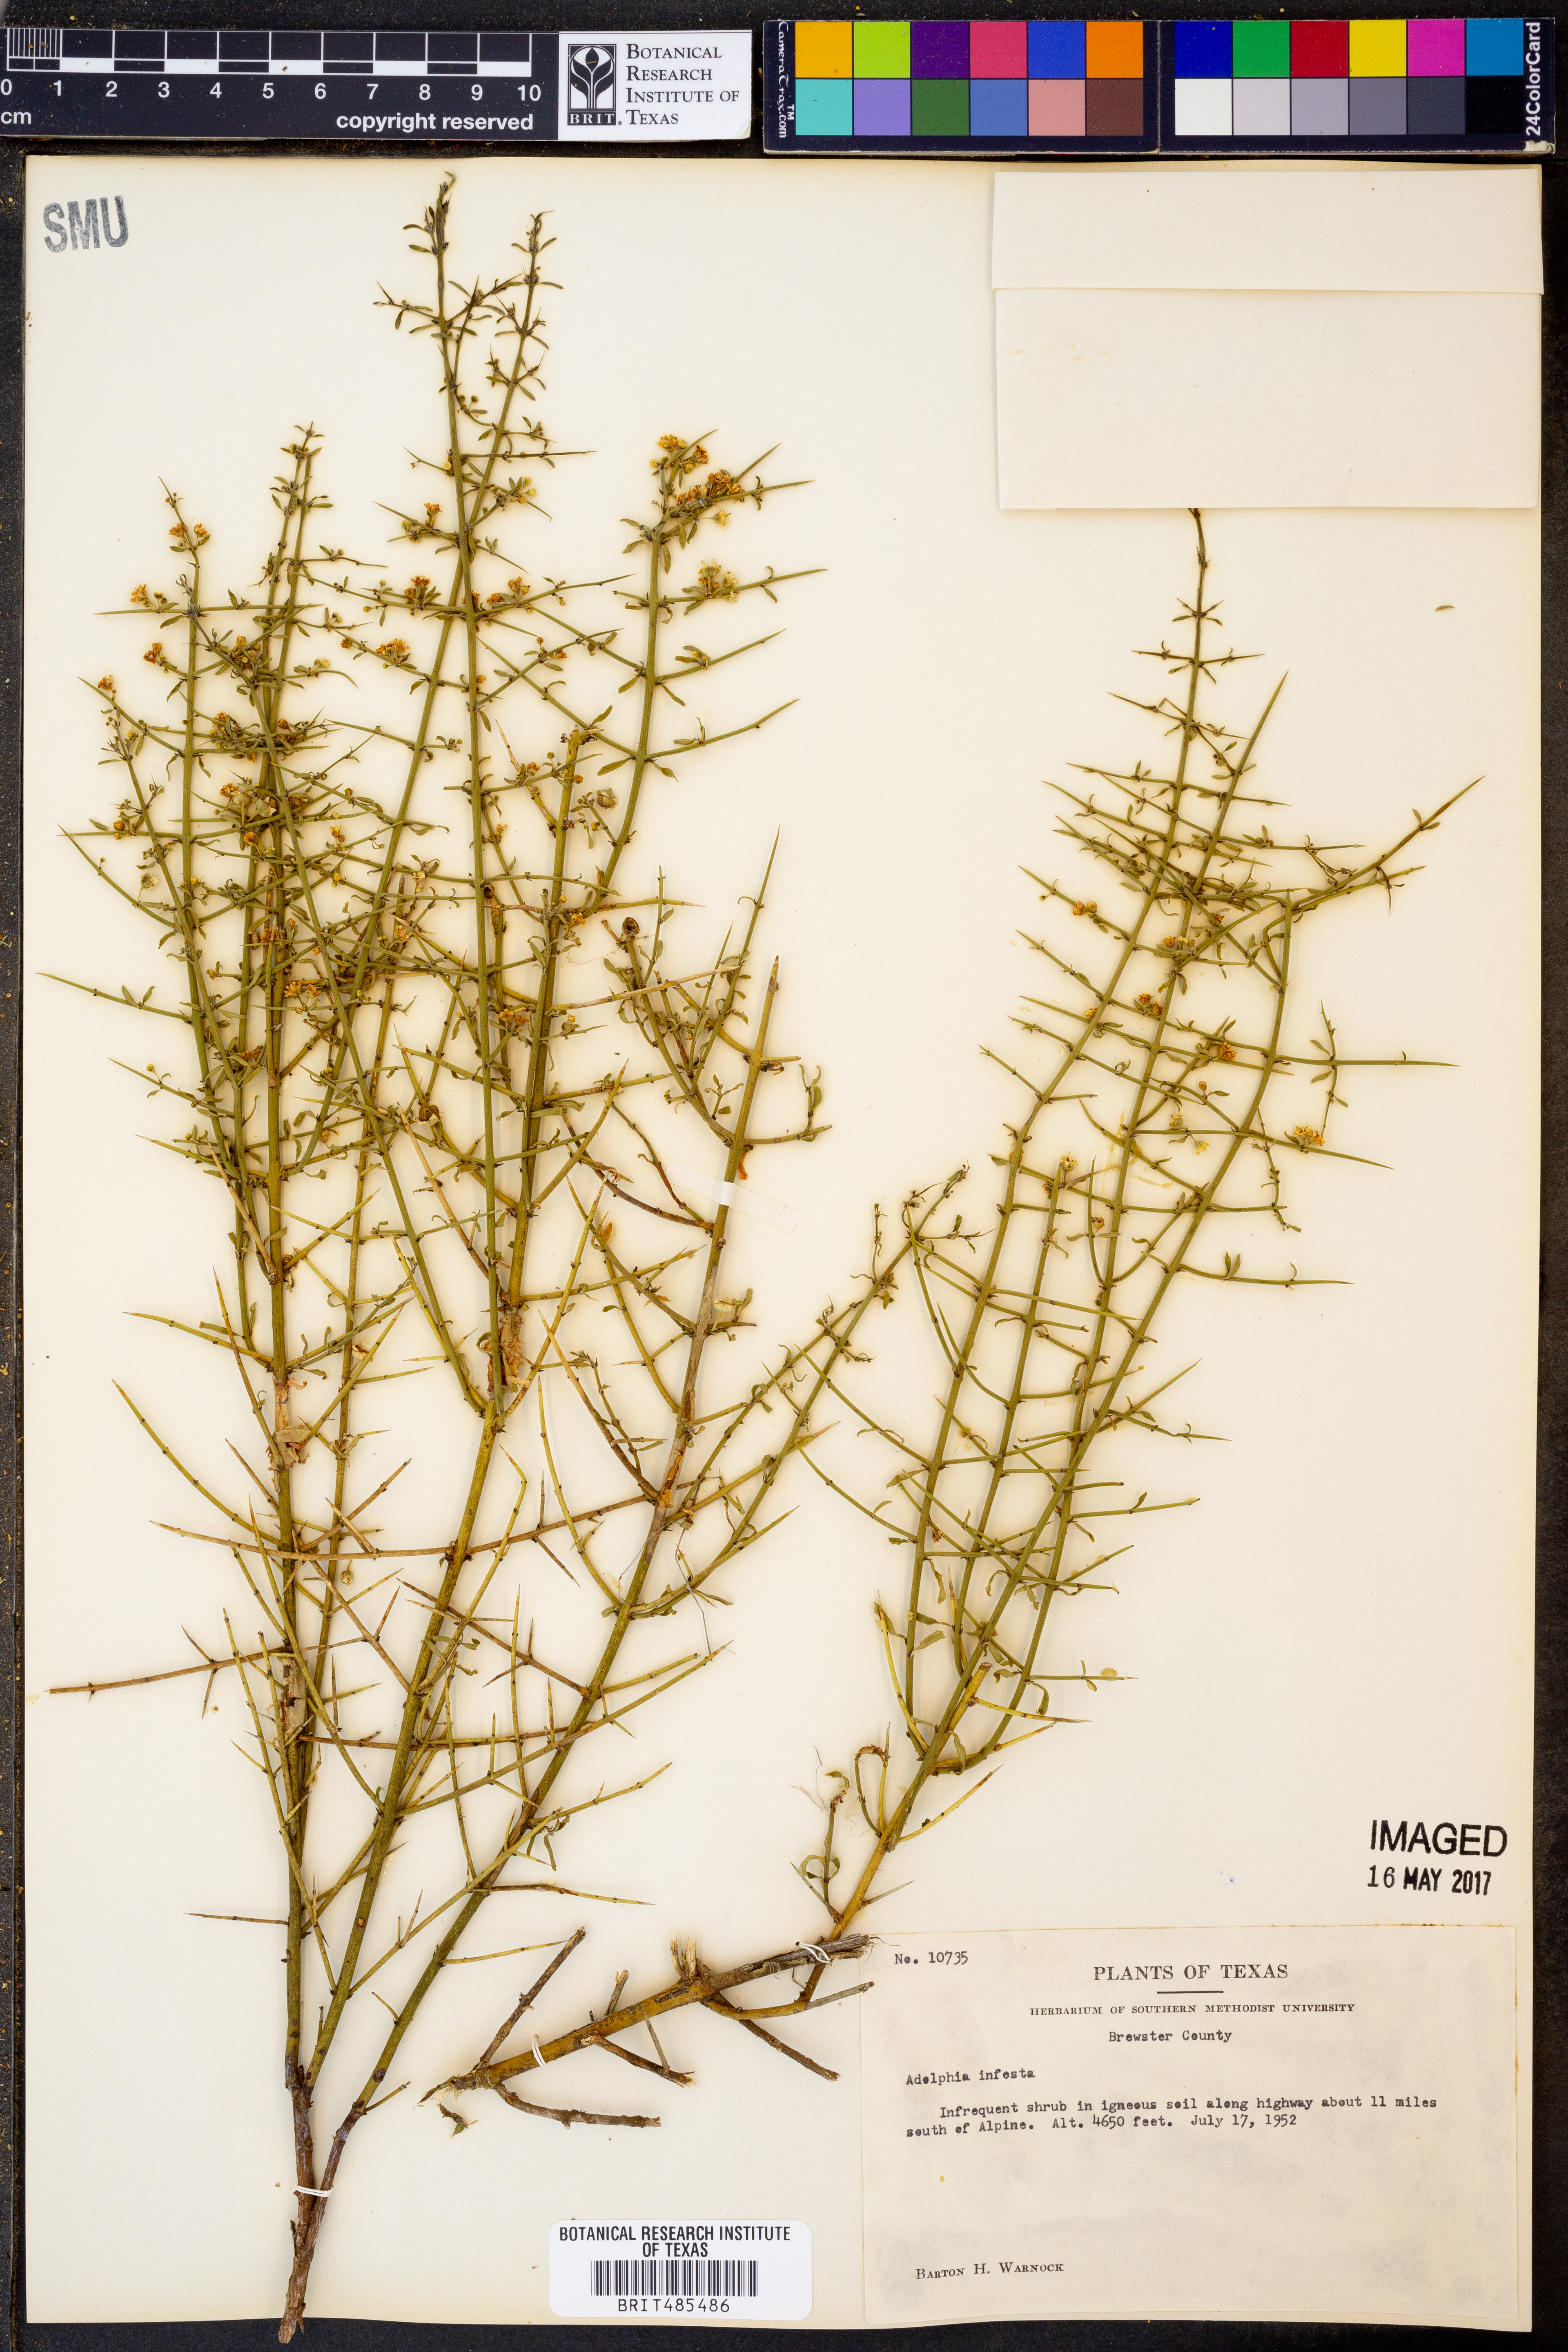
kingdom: Plantae
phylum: Tracheophyta
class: Magnoliopsida
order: Rosales
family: Rhamnaceae
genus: Adolphia
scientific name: Adolphia infesta
